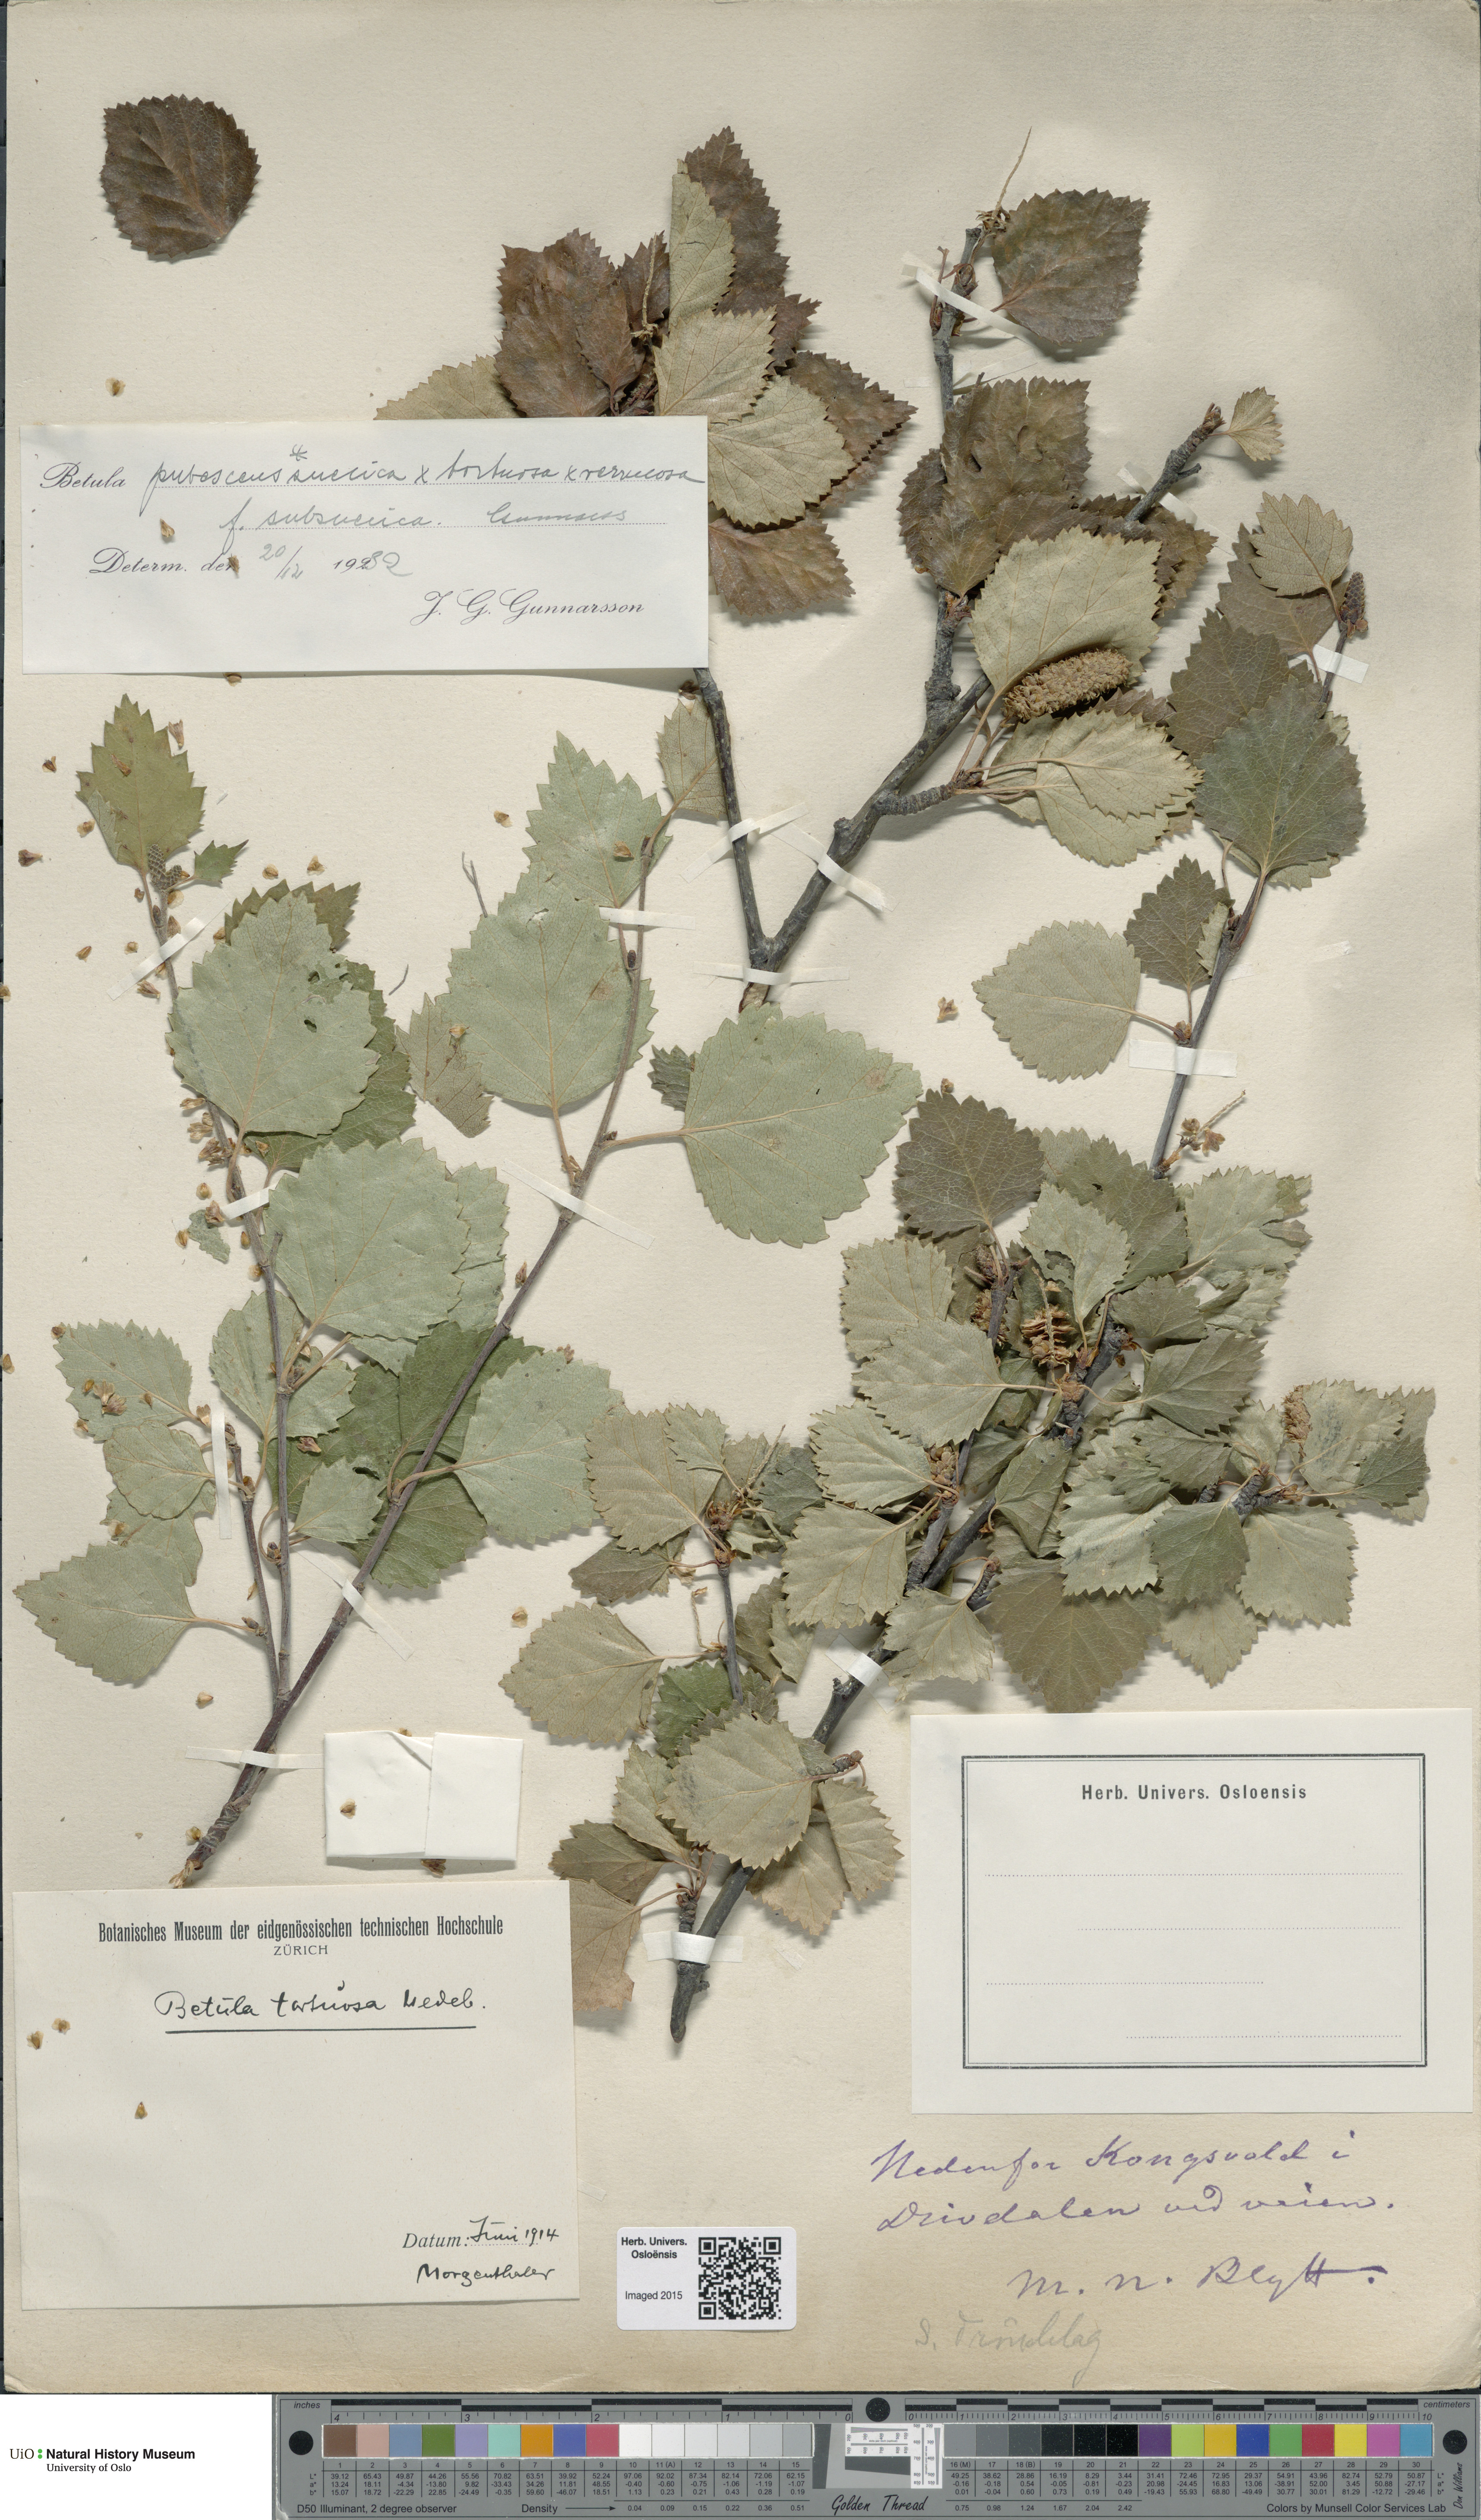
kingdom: Plantae
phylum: Tracheophyta
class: Magnoliopsida
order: Fagales
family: Betulaceae
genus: Betula
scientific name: Betula pubescens
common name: Downy birch
